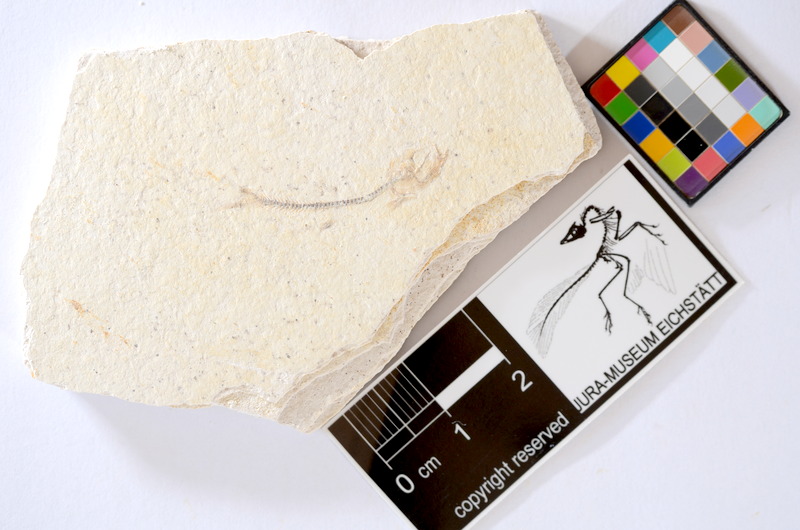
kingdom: Animalia
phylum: Chordata
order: Salmoniformes
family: Orthogonikleithridae
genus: Orthogonikleithrus
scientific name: Orthogonikleithrus hoelli
